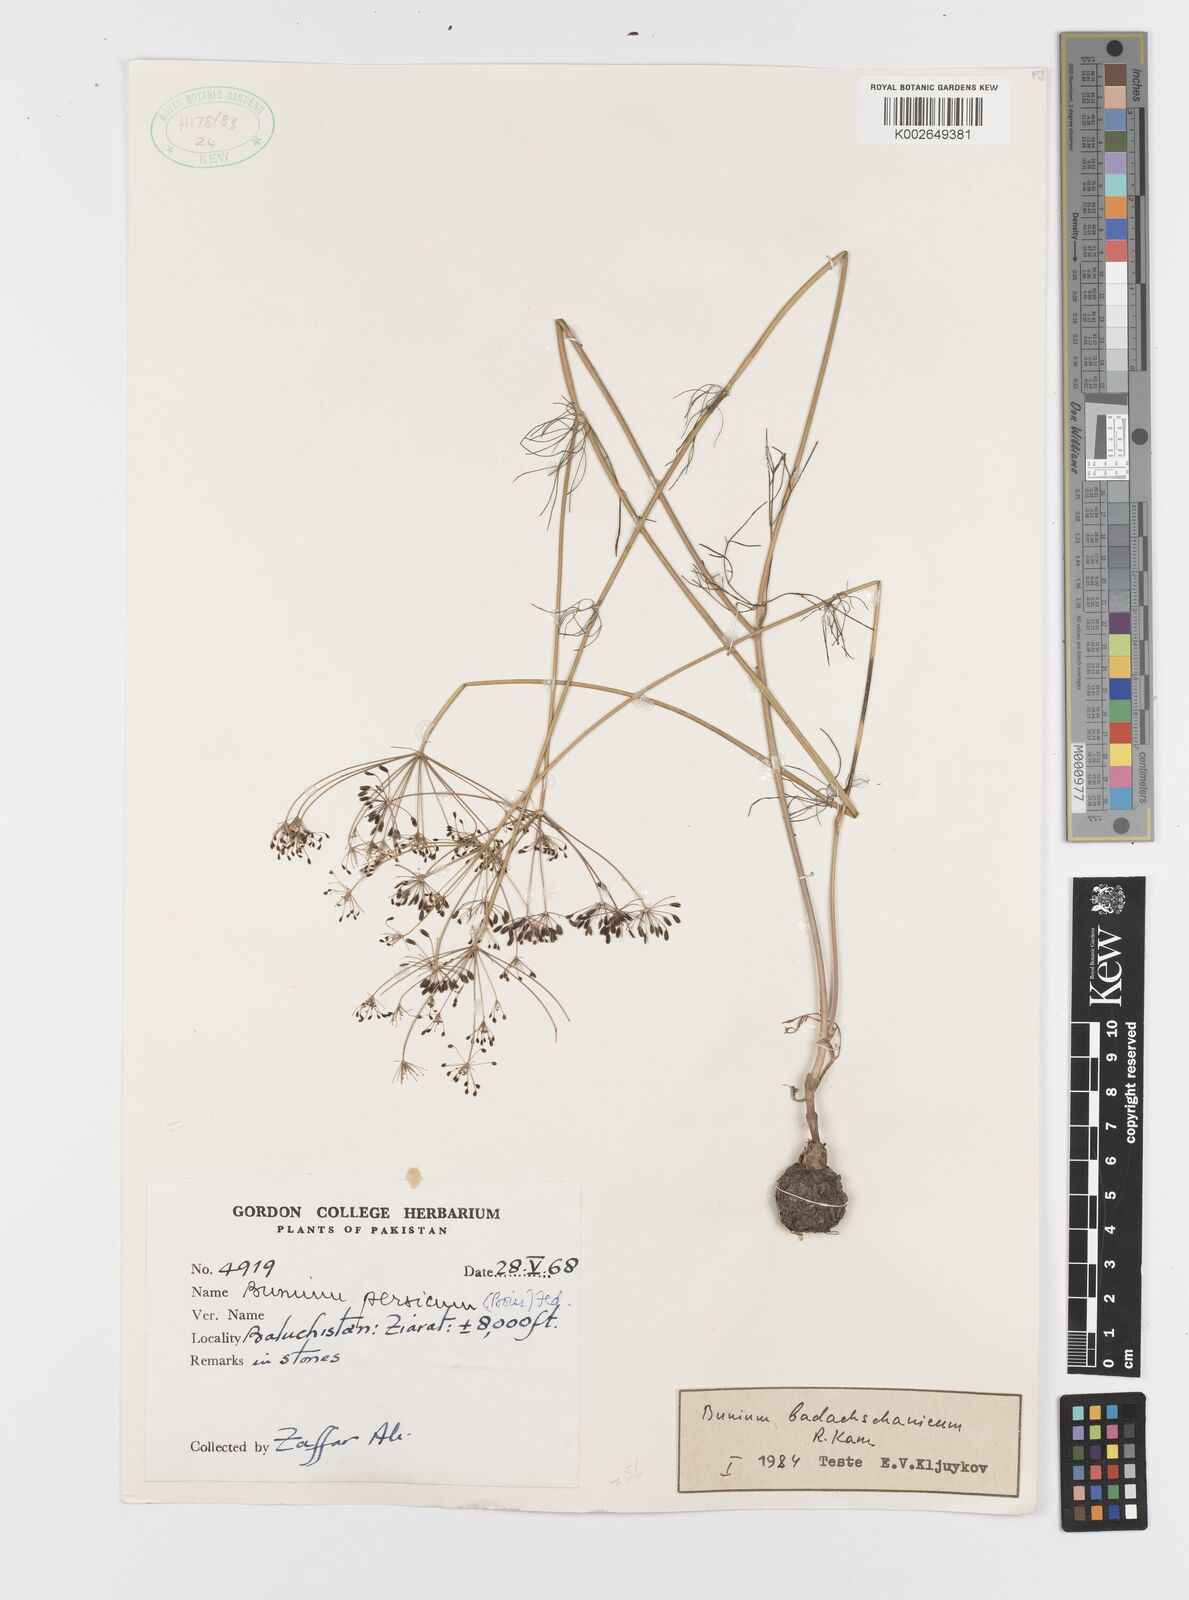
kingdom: Plantae
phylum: Tracheophyta
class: Magnoliopsida
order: Apiales
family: Apiaceae
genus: Elwendia
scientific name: Elwendia badachschanica
